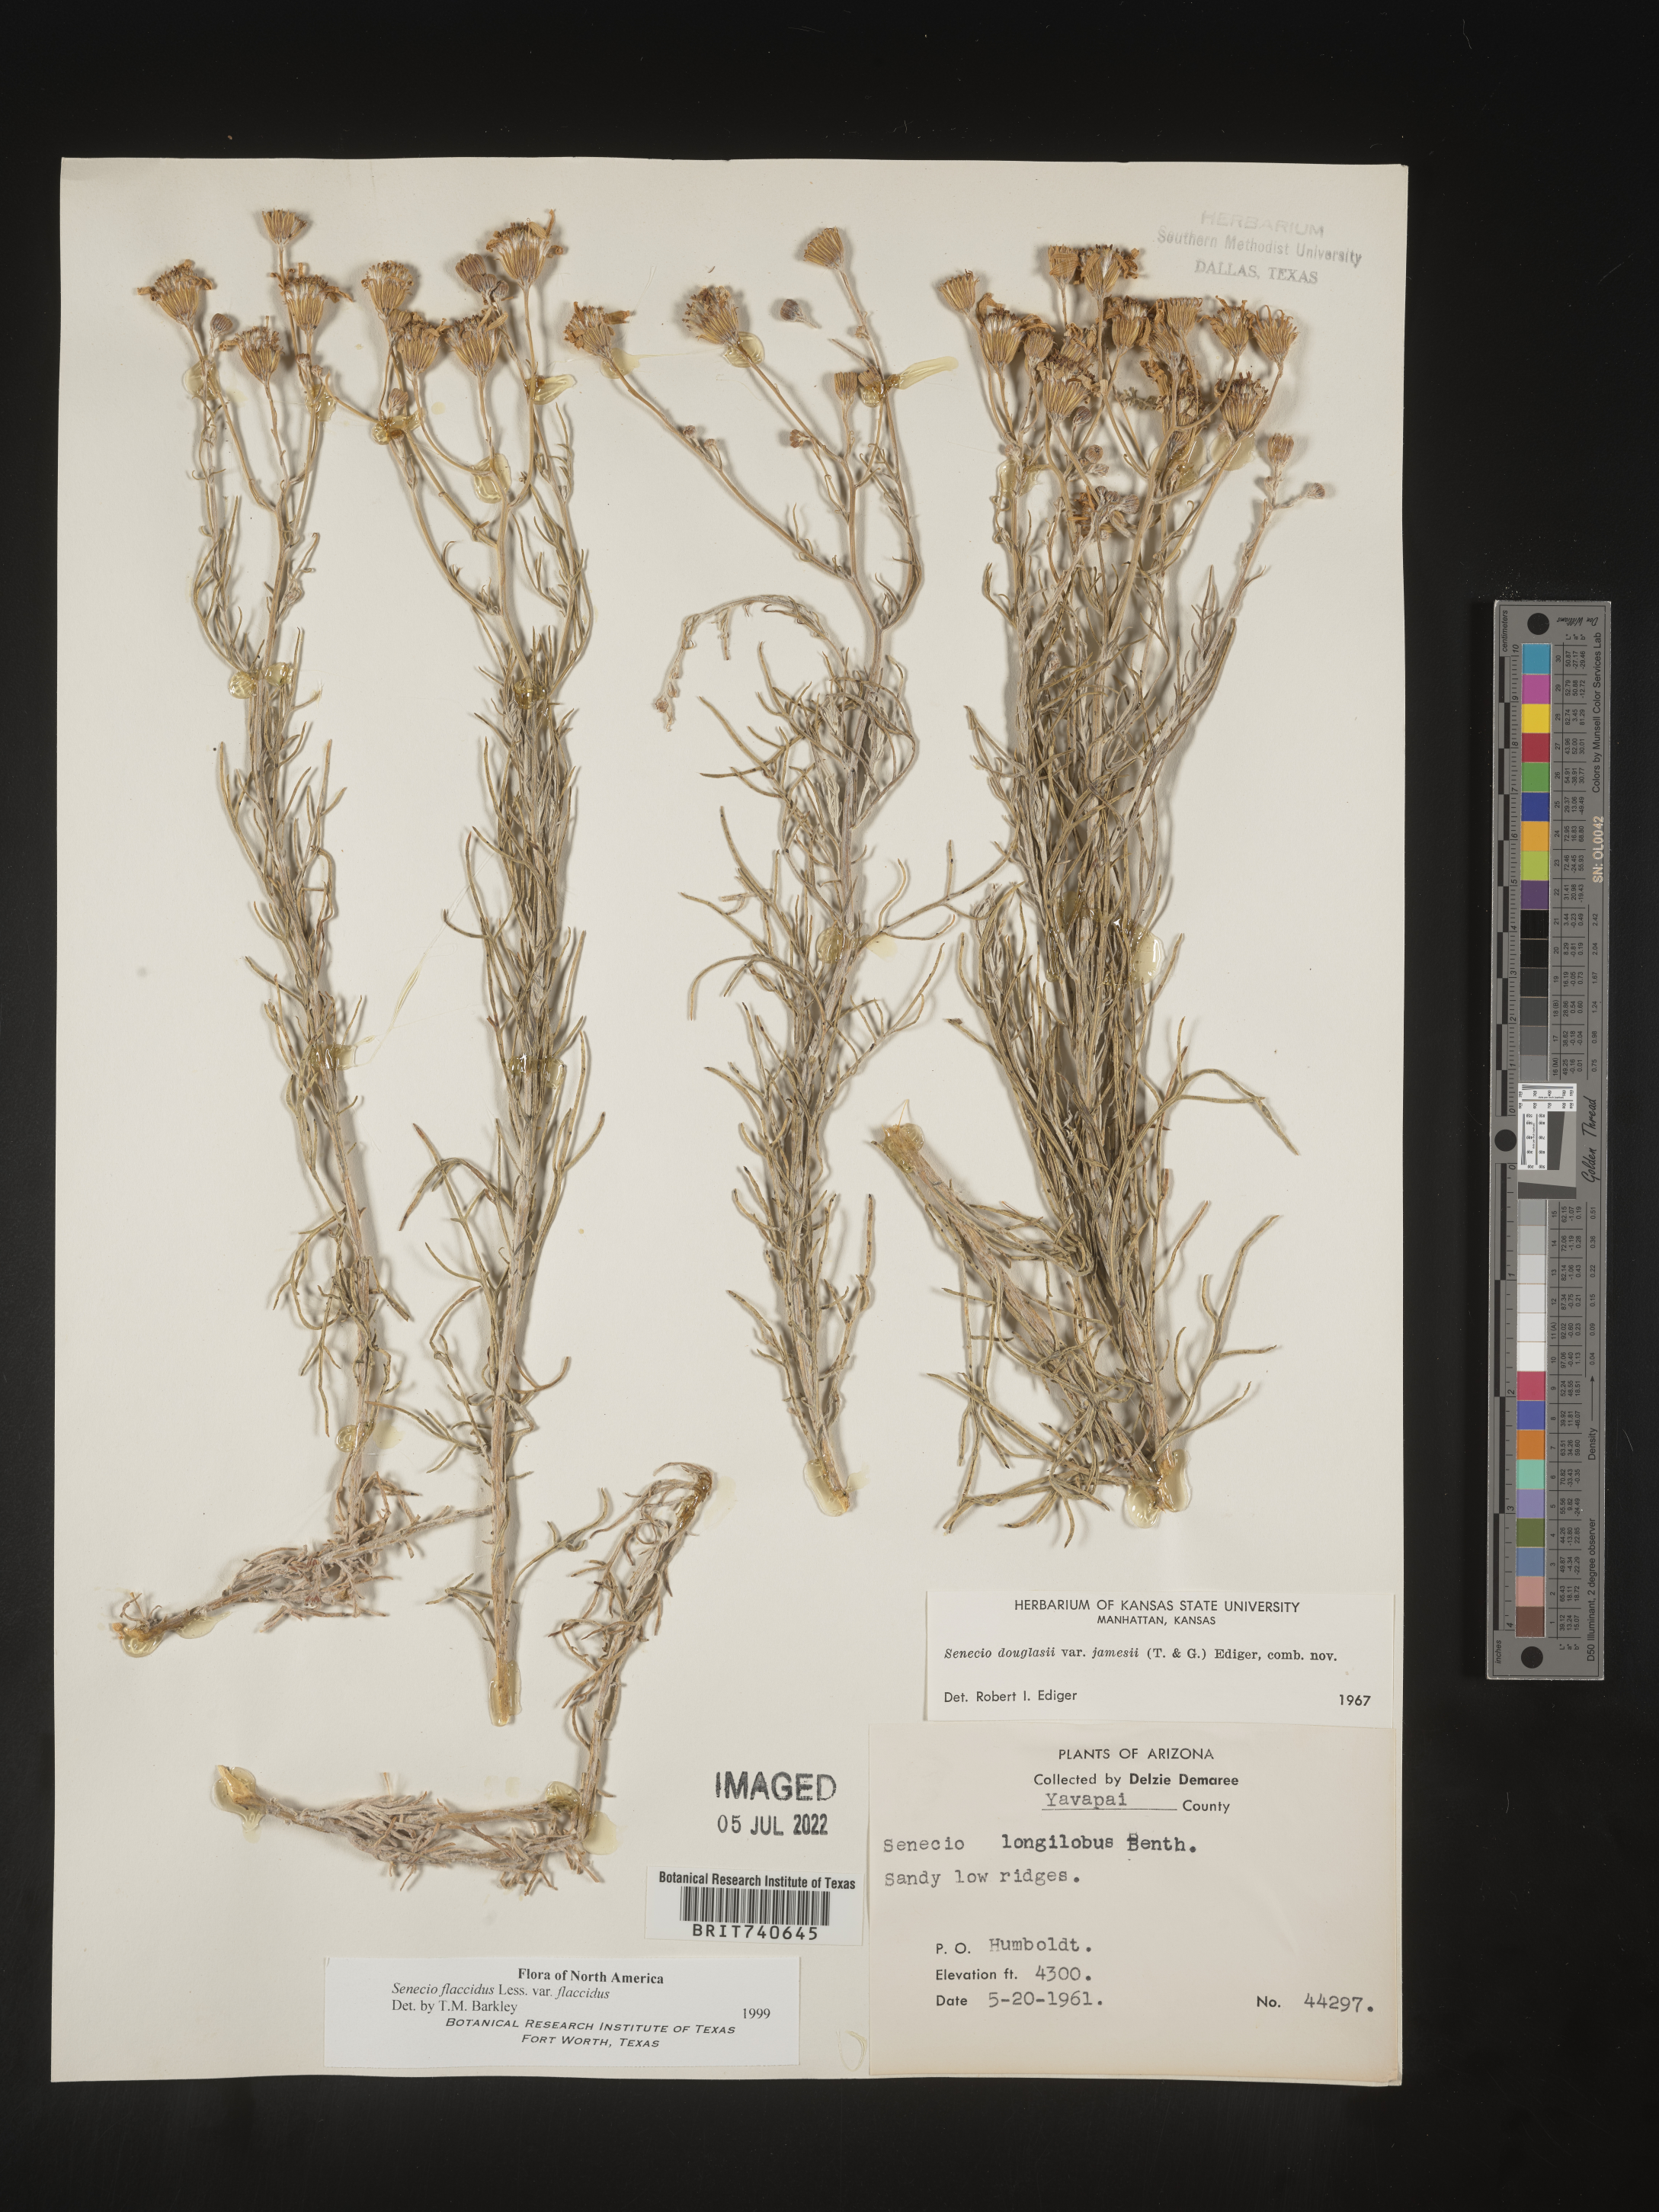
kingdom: Plantae
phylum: Tracheophyta
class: Magnoliopsida
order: Asterales
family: Asteraceae
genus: Senecio
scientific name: Senecio flaccidus
